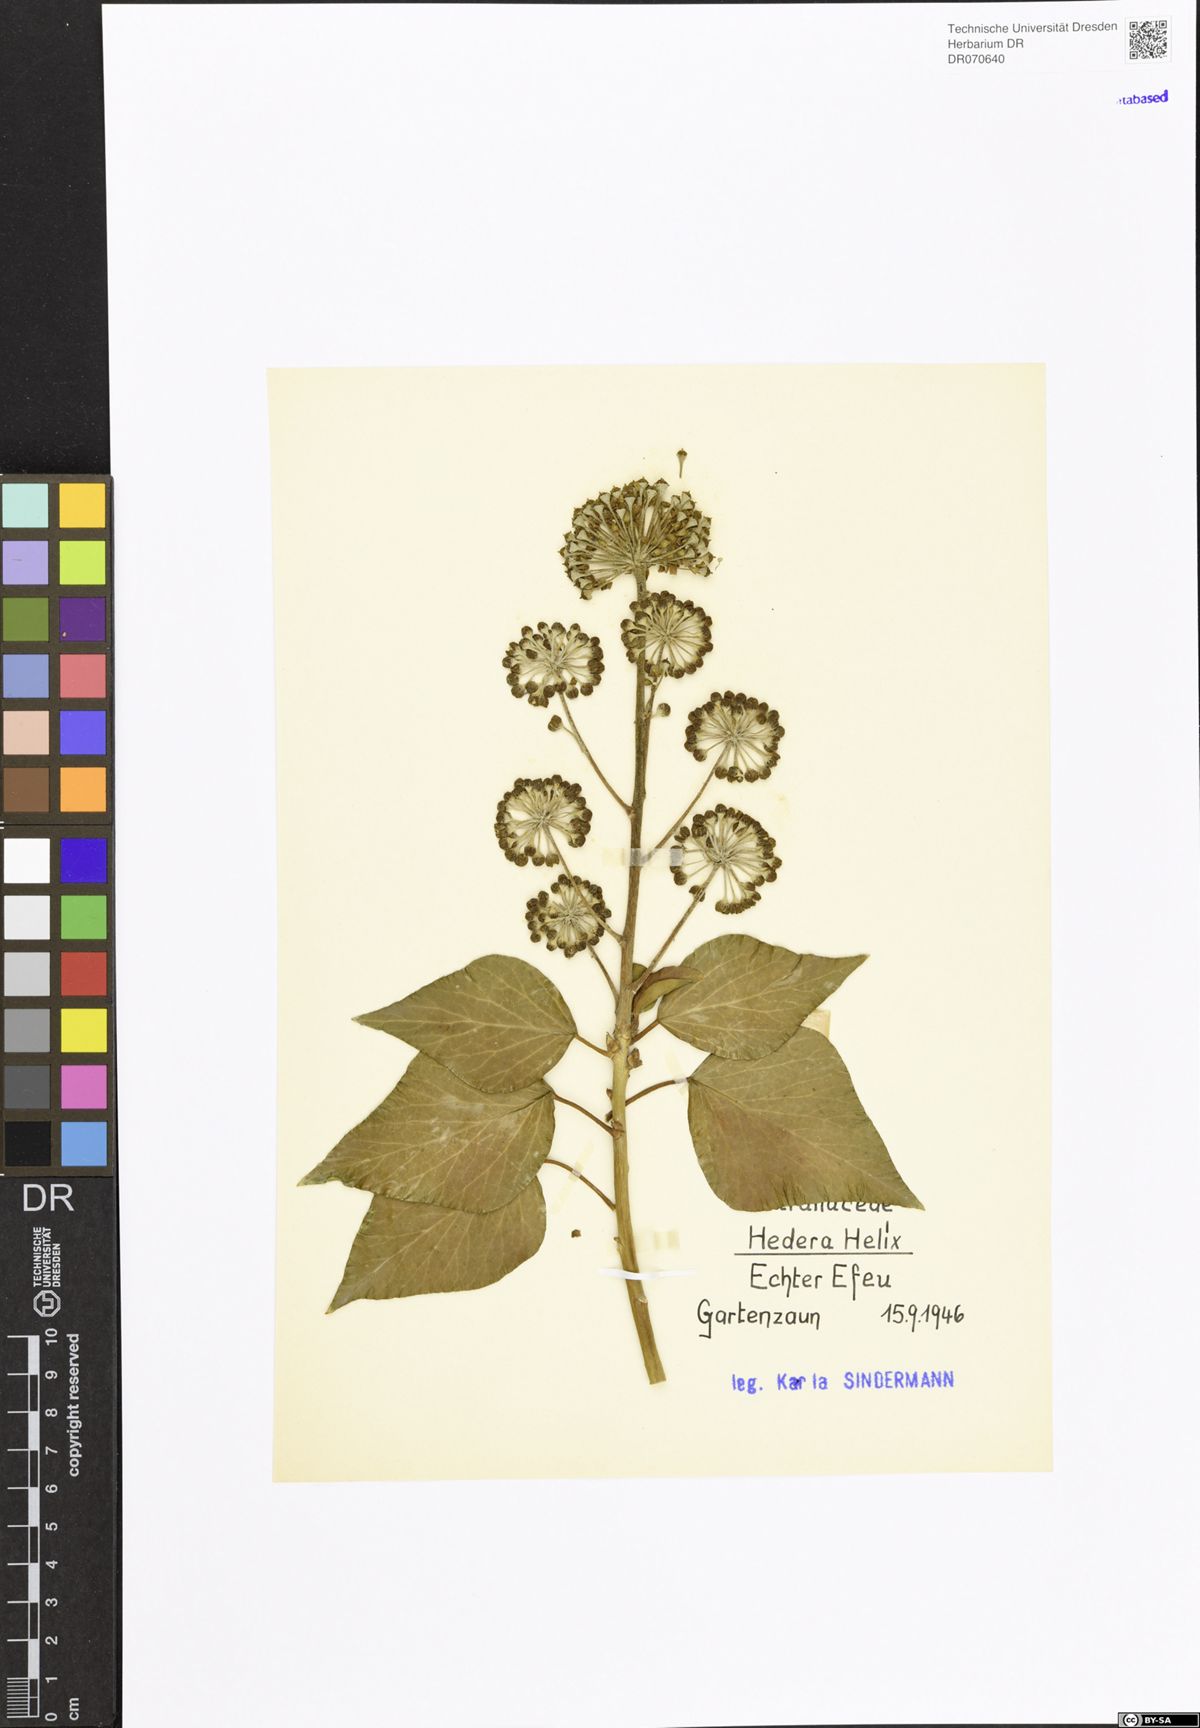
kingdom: Plantae
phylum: Tracheophyta
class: Magnoliopsida
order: Apiales
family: Araliaceae
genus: Hedera
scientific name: Hedera helix
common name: Ivy
